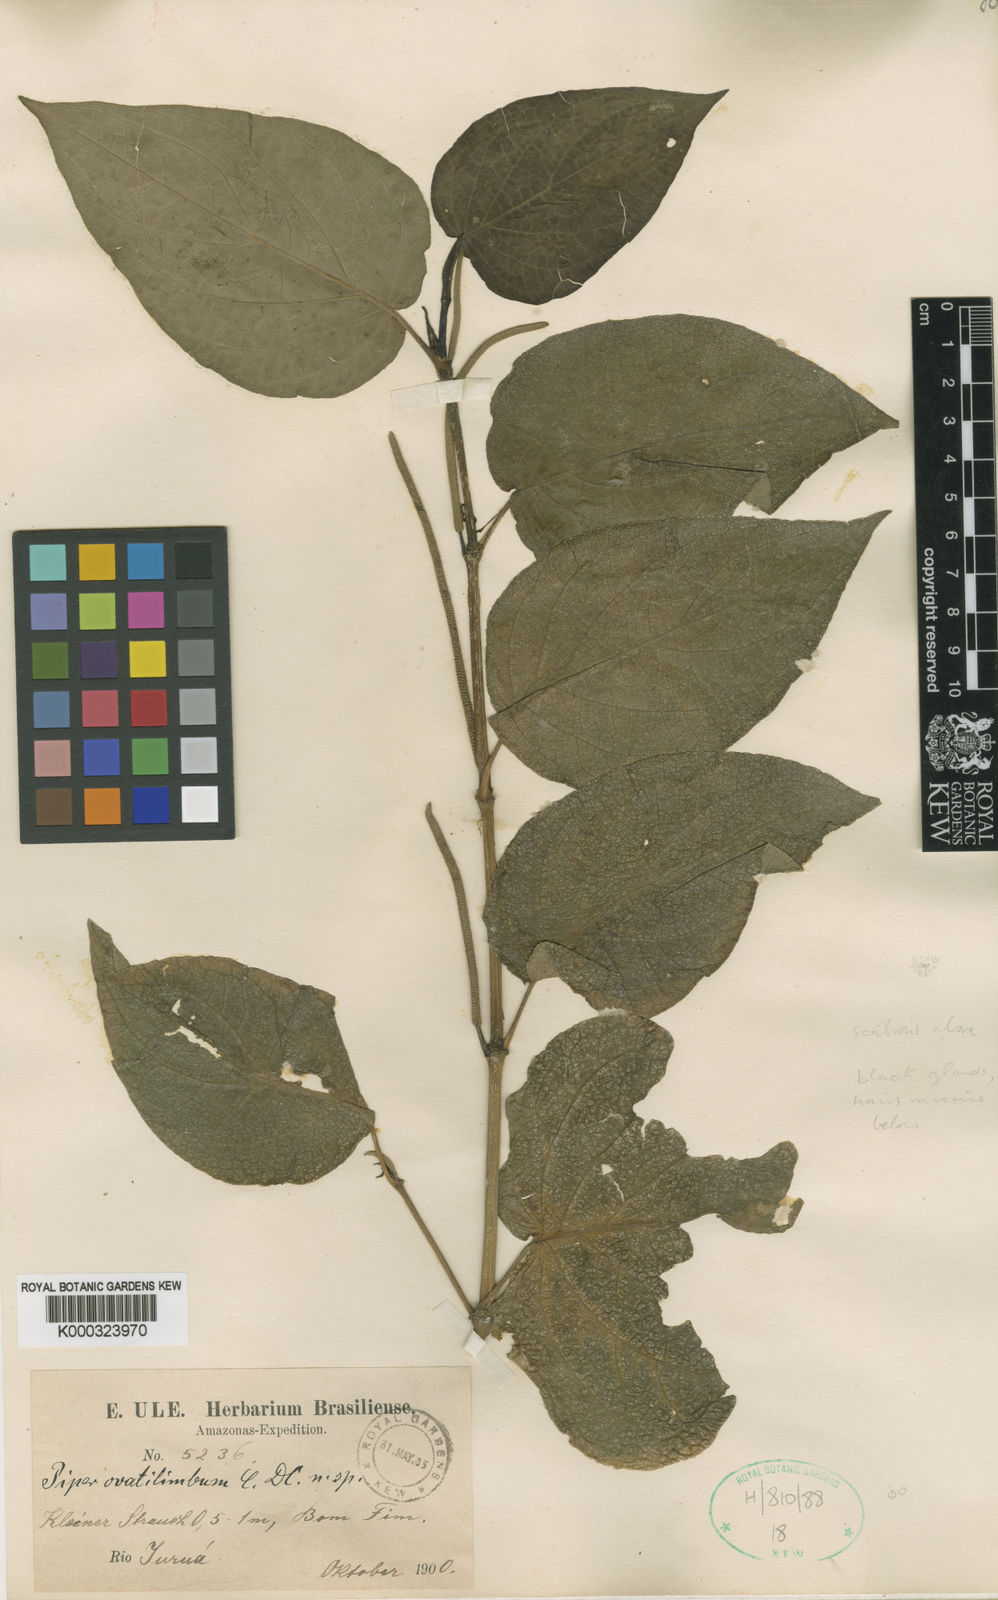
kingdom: Plantae
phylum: Tracheophyta
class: Magnoliopsida
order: Piperales
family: Piperaceae
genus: Piper
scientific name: Piper ovatilimbum
